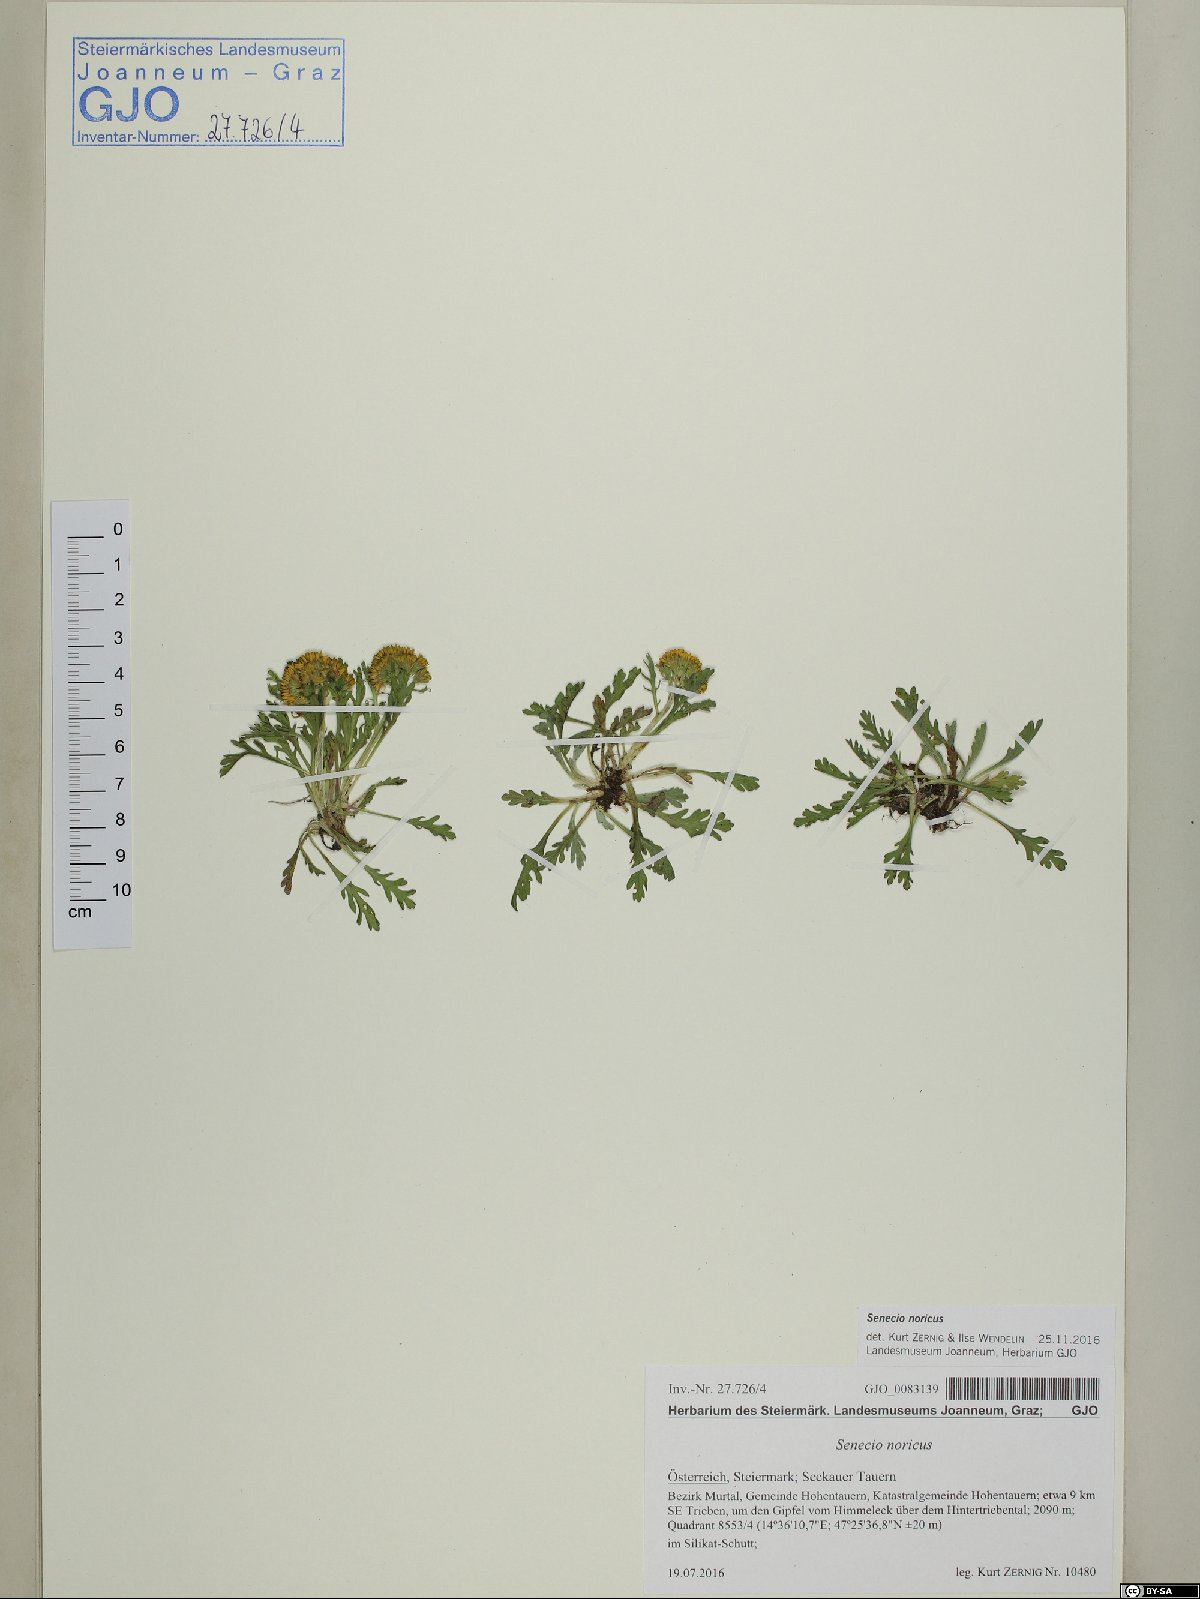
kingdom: Plantae
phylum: Tracheophyta
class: Magnoliopsida
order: Asterales
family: Asteraceae
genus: Jacobaea
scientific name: Jacobaea norica
